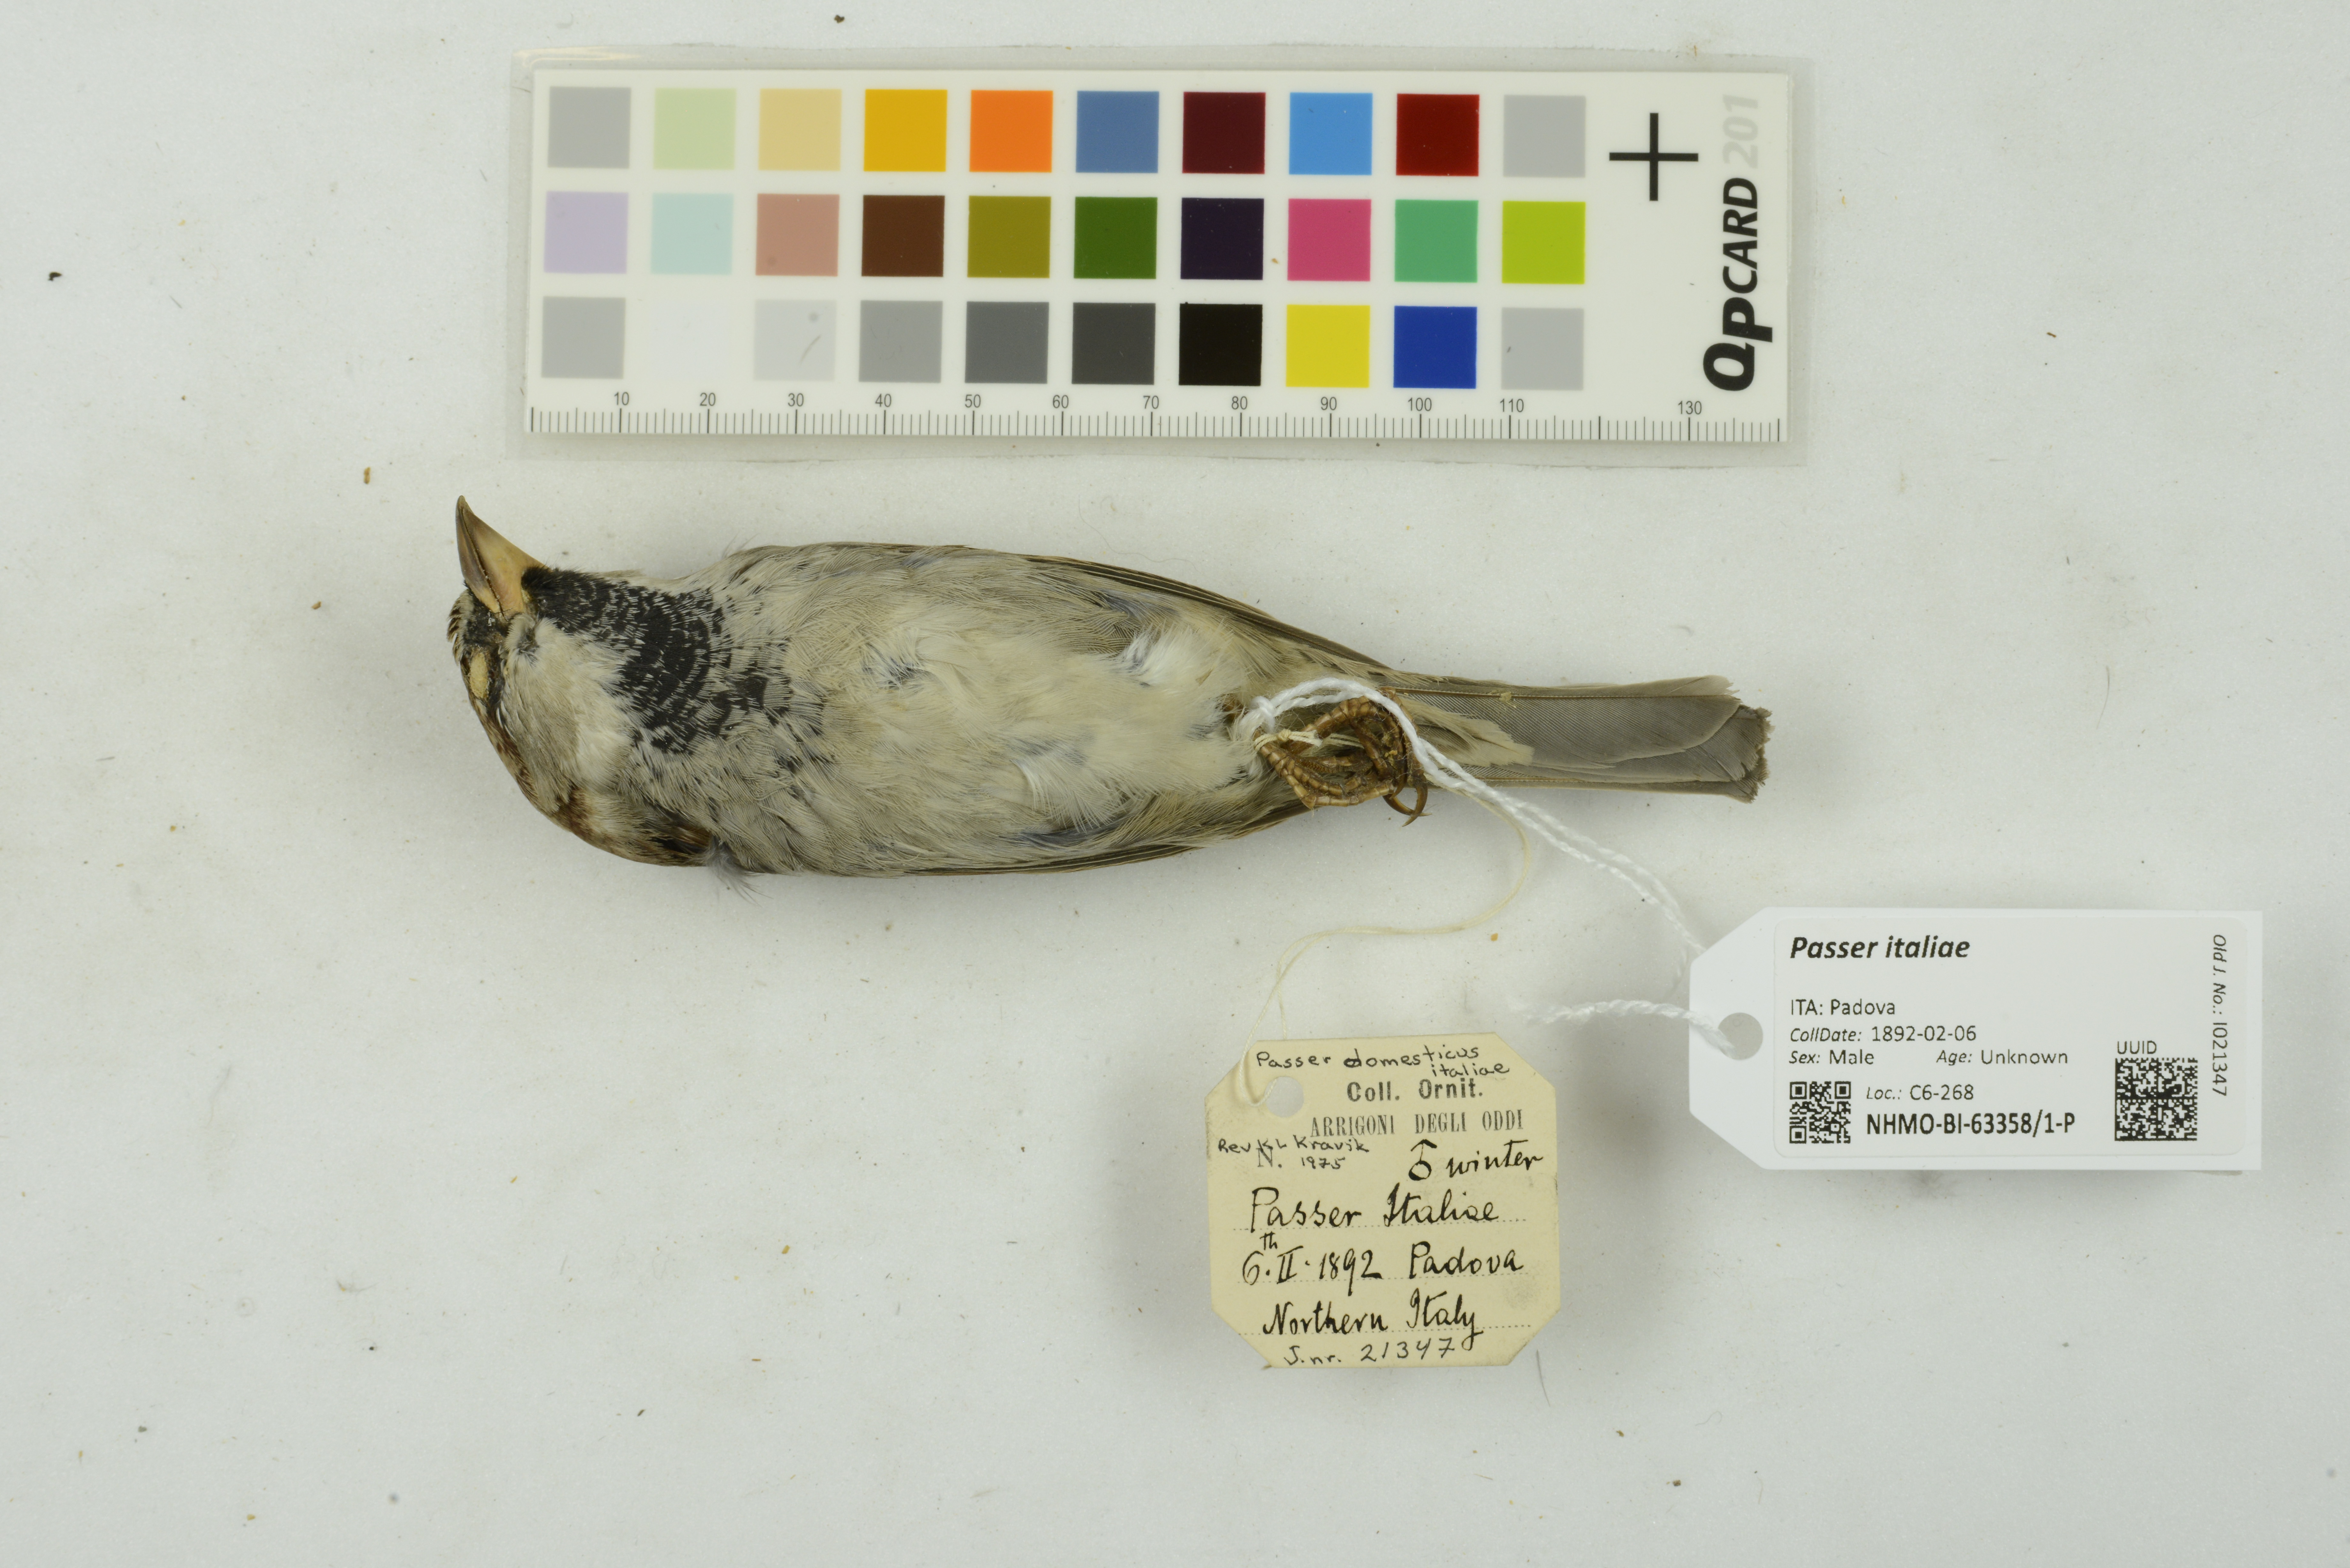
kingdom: Animalia
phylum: Chordata
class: Aves
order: Passeriformes
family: Passeridae
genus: Passer
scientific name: Passer italiae
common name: Italian sparrow
